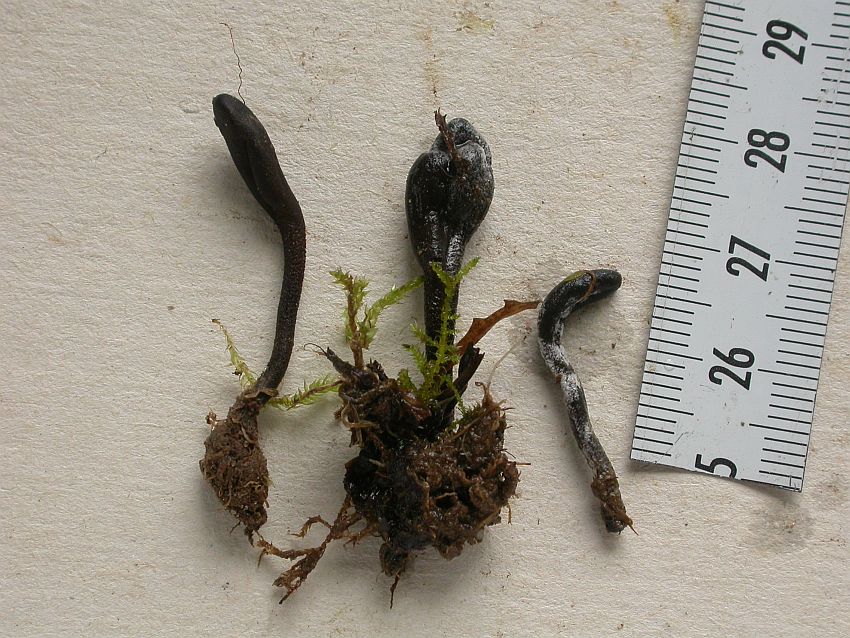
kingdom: Fungi
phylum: Ascomycota
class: Geoglossomycetes
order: Geoglossales
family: Geoglossaceae
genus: Geoglossum
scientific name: Geoglossum fallax
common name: småskællet jordtunge
